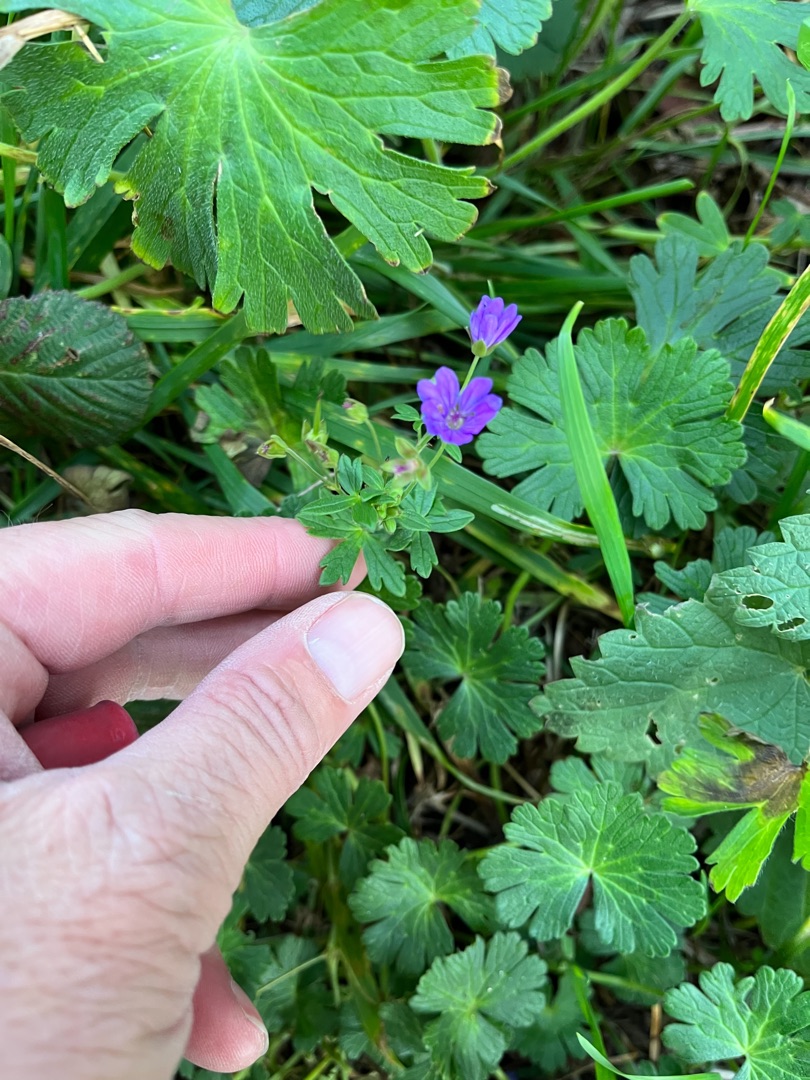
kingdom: Plantae
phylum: Tracheophyta
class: Magnoliopsida
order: Geraniales
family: Geraniaceae
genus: Geranium
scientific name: Geranium pyrenaicum
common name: Pyrenæisk storkenæb
